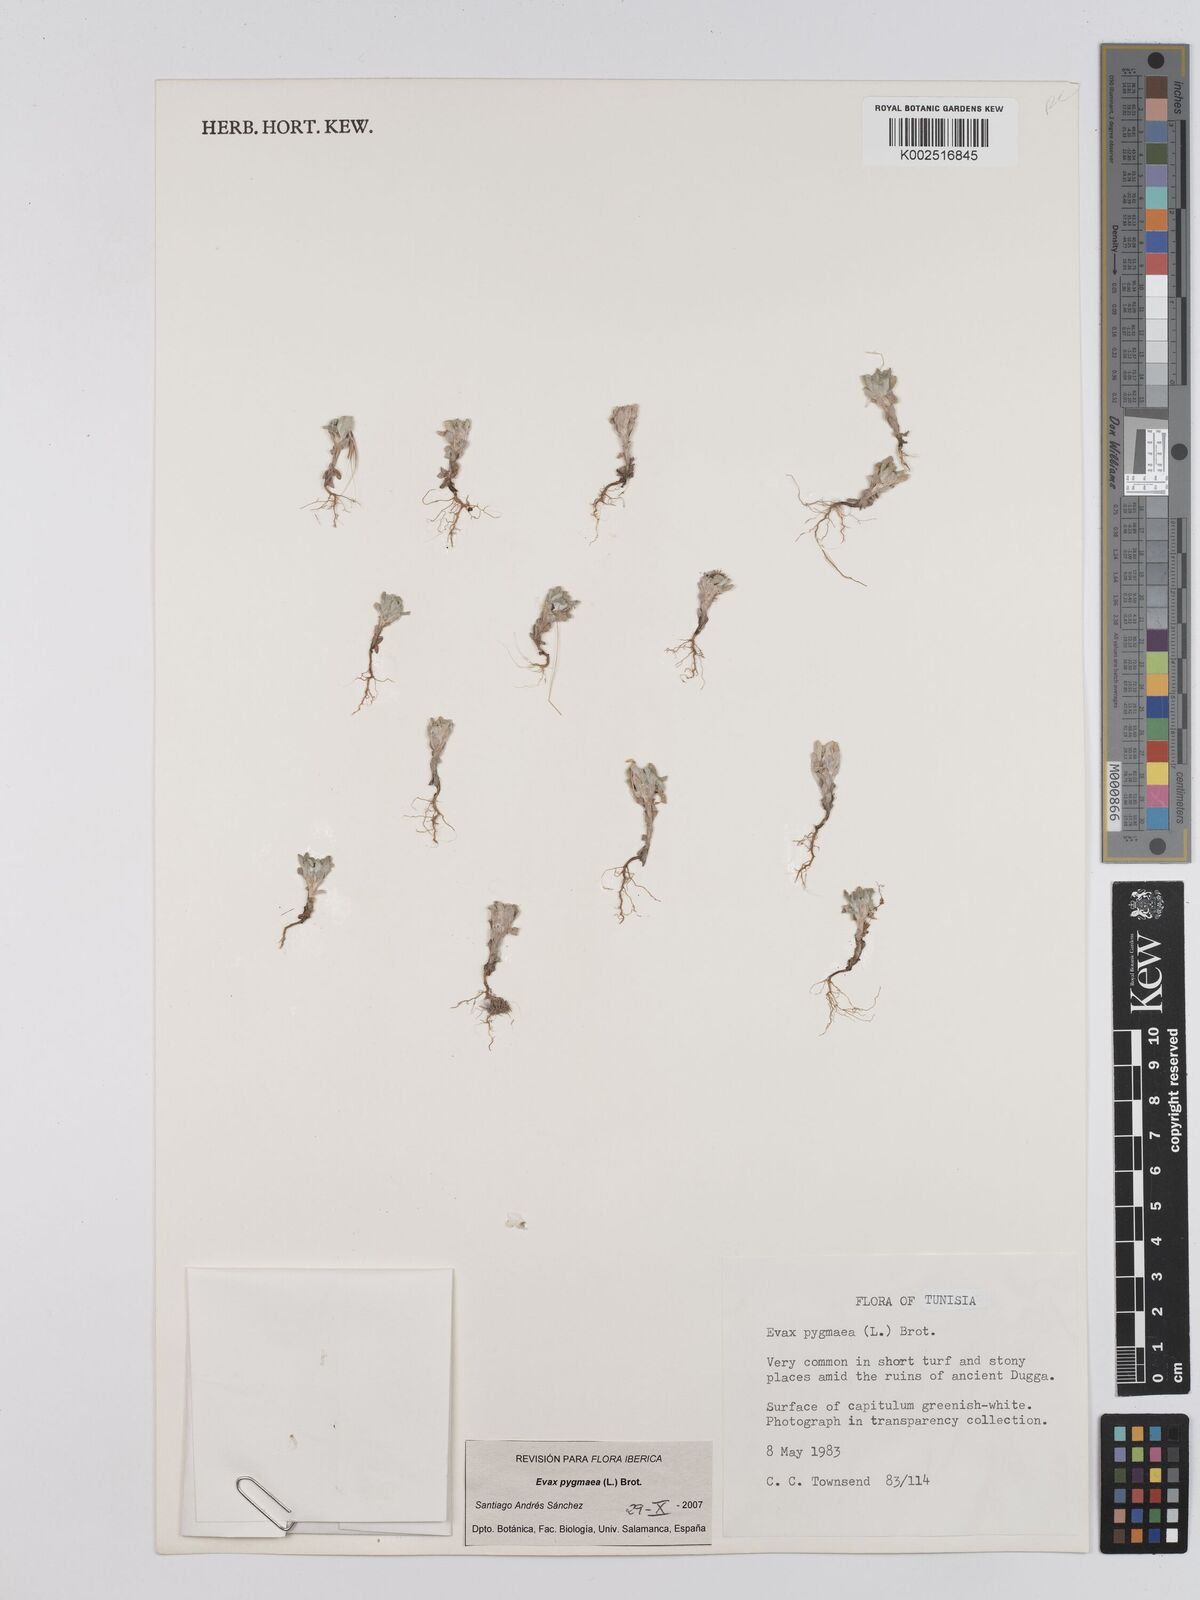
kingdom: Plantae
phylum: Tracheophyta
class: Magnoliopsida
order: Asterales
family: Asteraceae
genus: Filago
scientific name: Filago pygmaea
